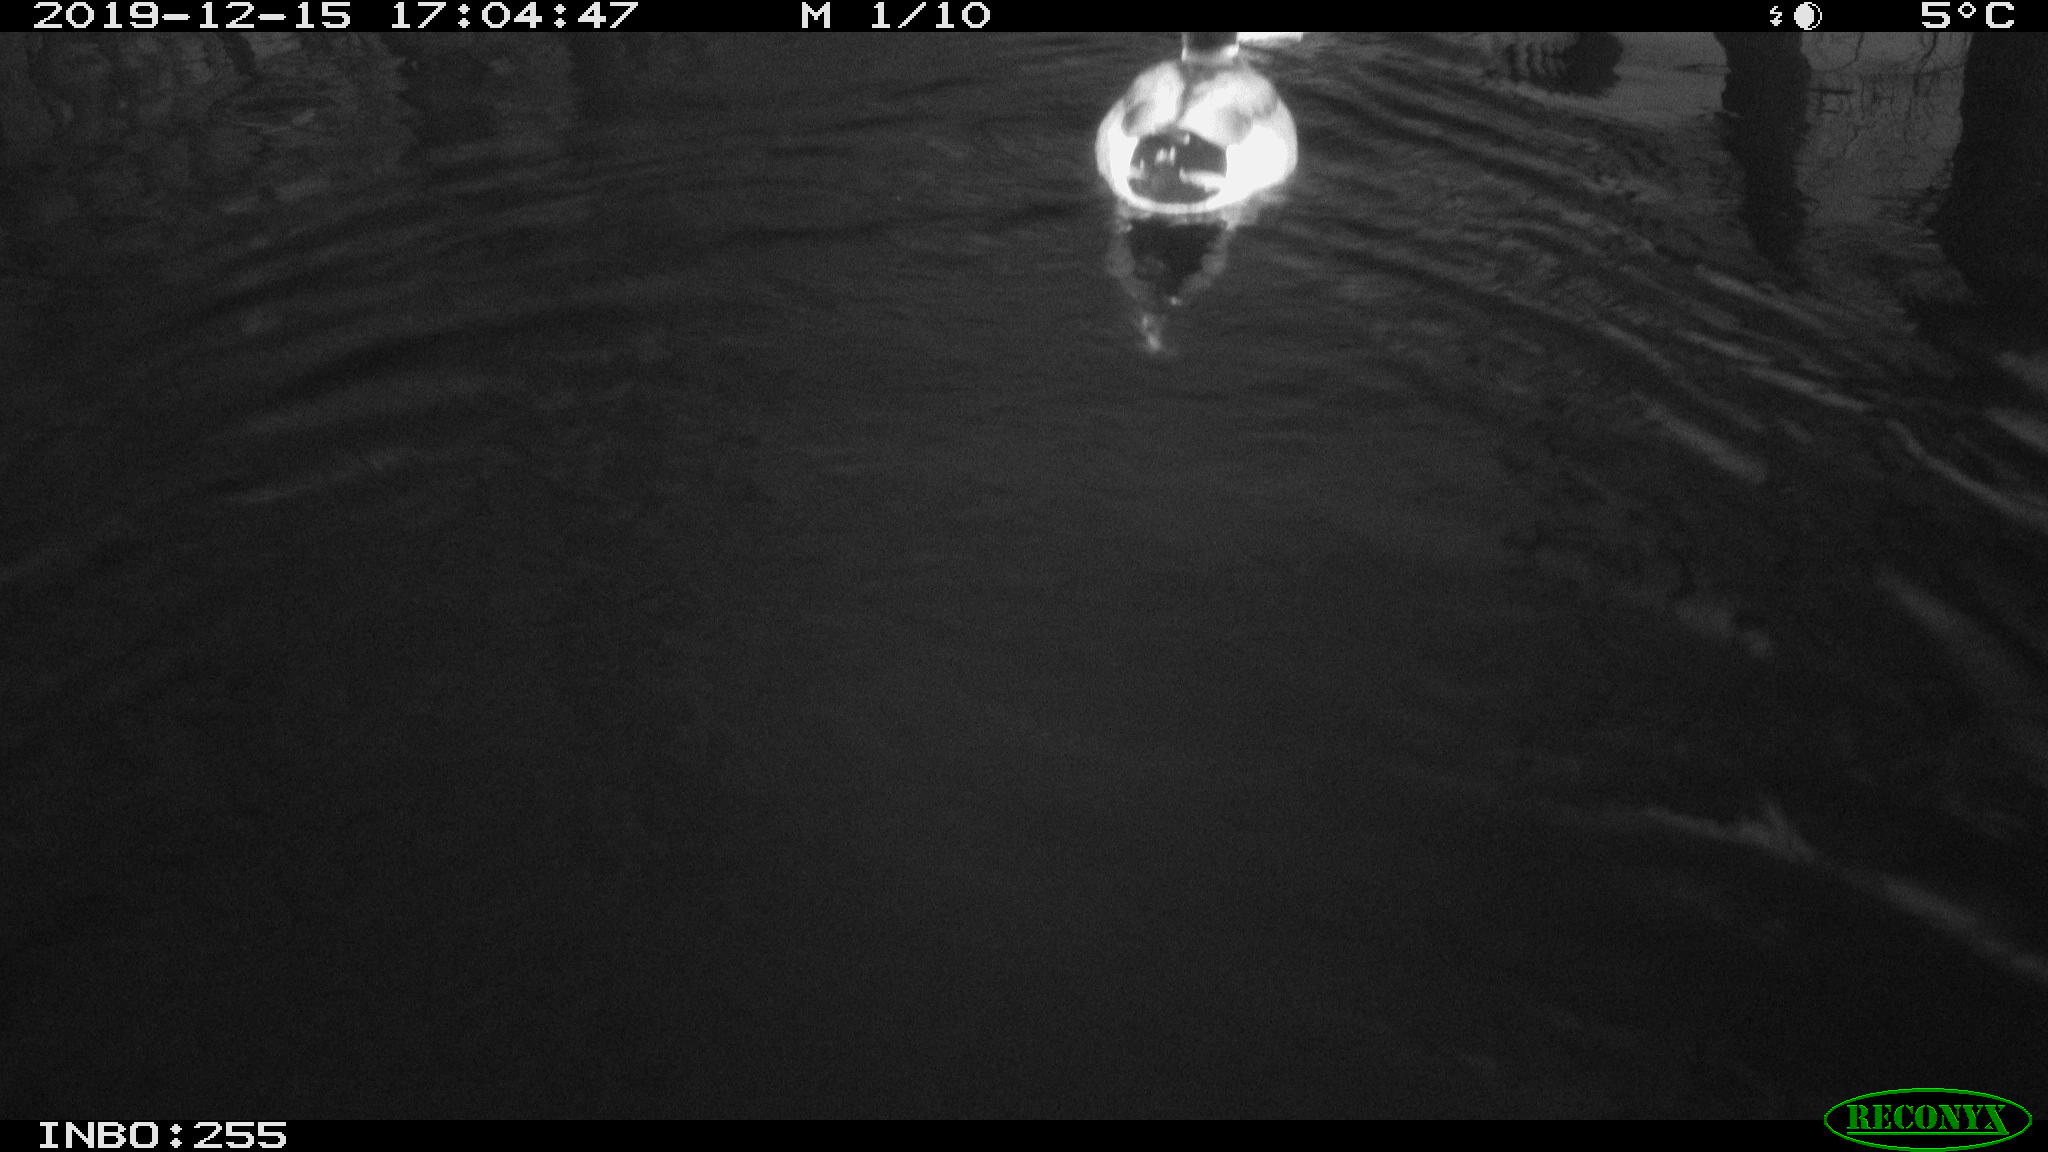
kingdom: Animalia
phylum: Chordata
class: Aves
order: Anseriformes
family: Anatidae
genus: Anas
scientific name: Anas platyrhynchos
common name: Mallard
